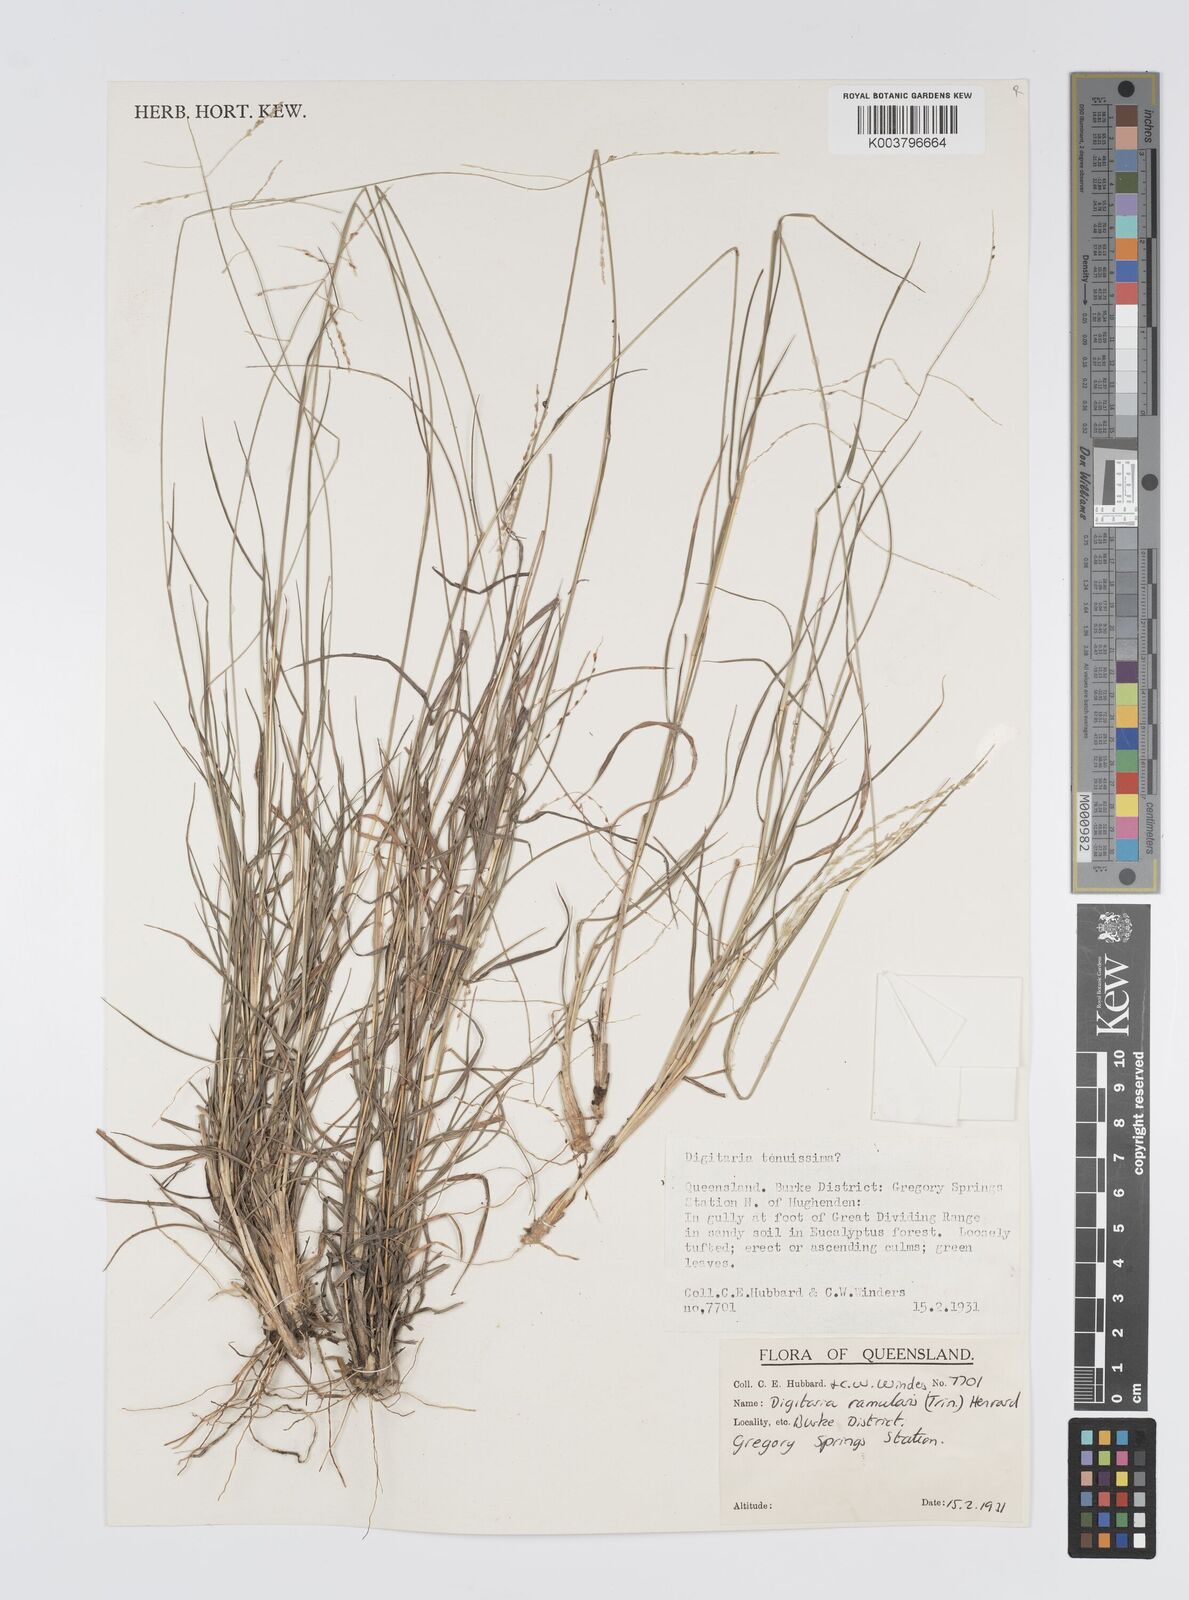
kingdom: Plantae
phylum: Tracheophyta
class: Liliopsida
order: Poales
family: Poaceae
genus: Digitaria
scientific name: Digitaria ramularis
